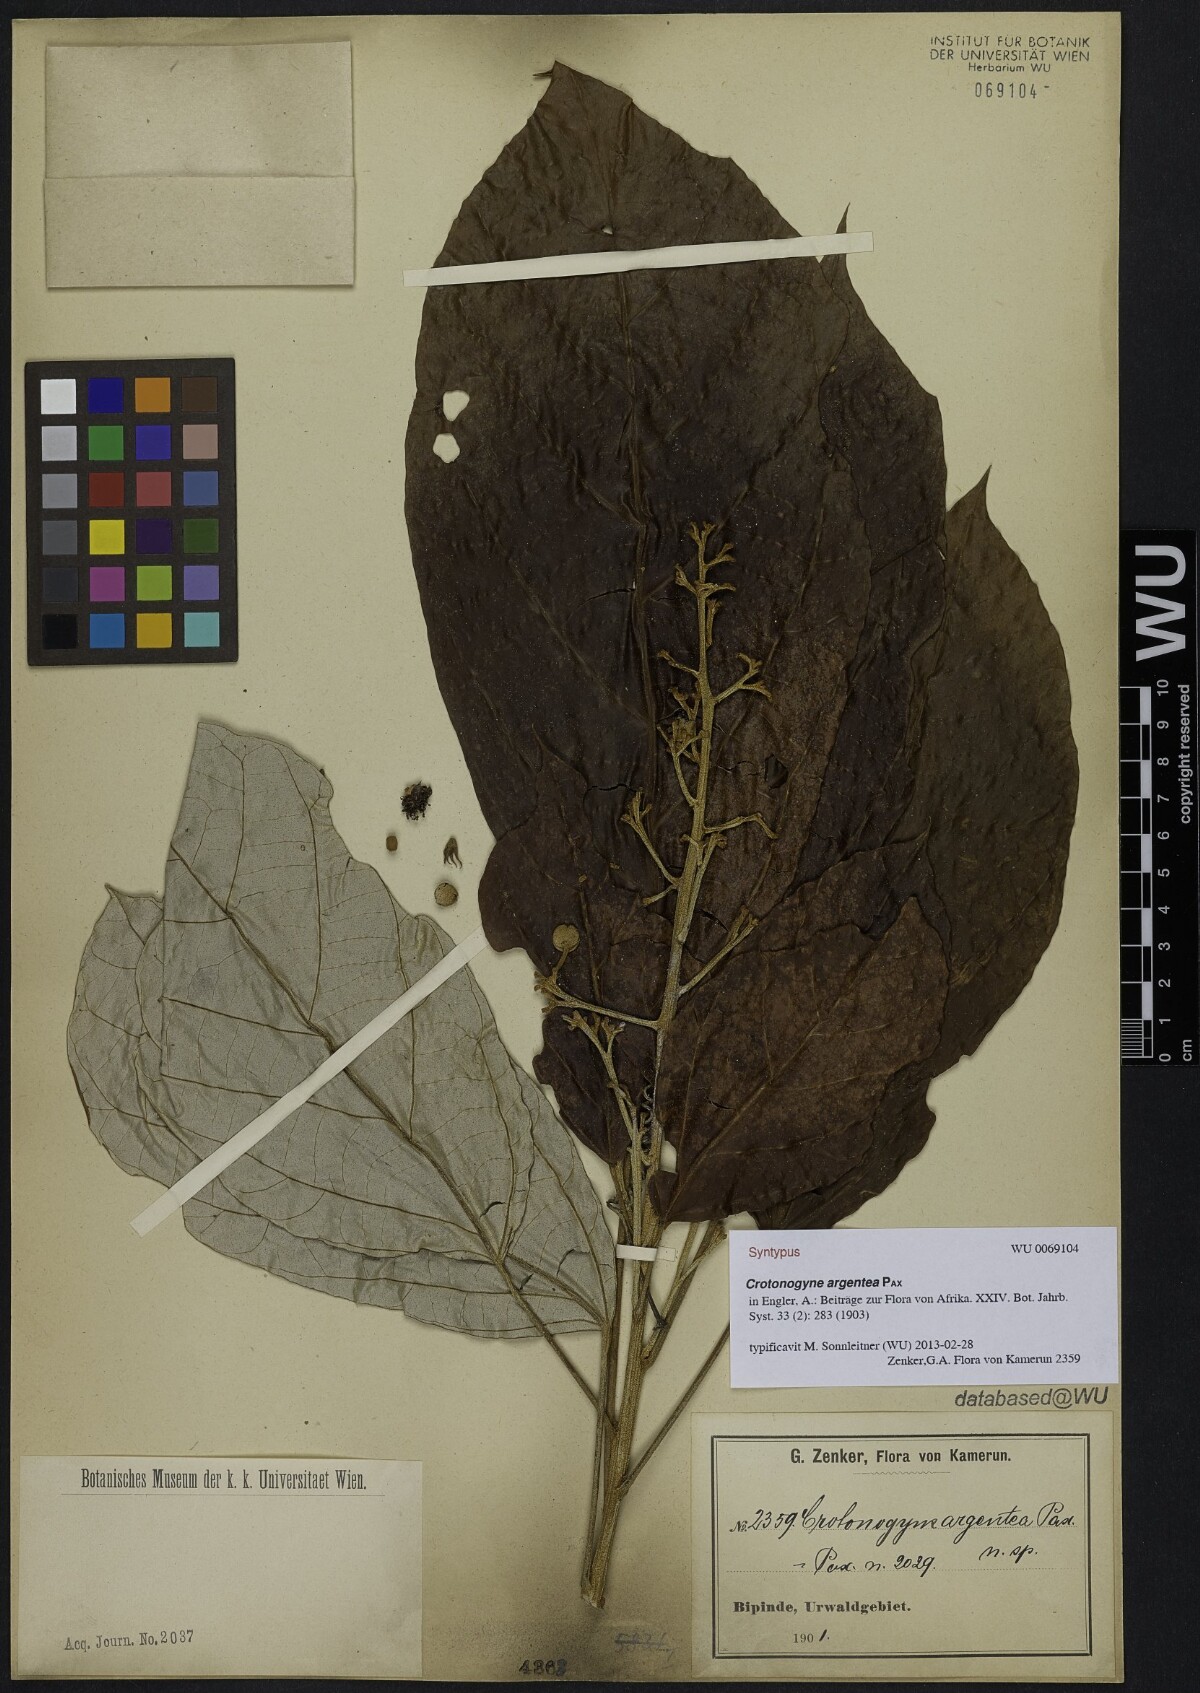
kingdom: Plantae
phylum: Tracheophyta
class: Magnoliopsida
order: Malpighiales
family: Euphorbiaceae
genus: Cyrtogonone
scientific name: Cyrtogonone argentea
